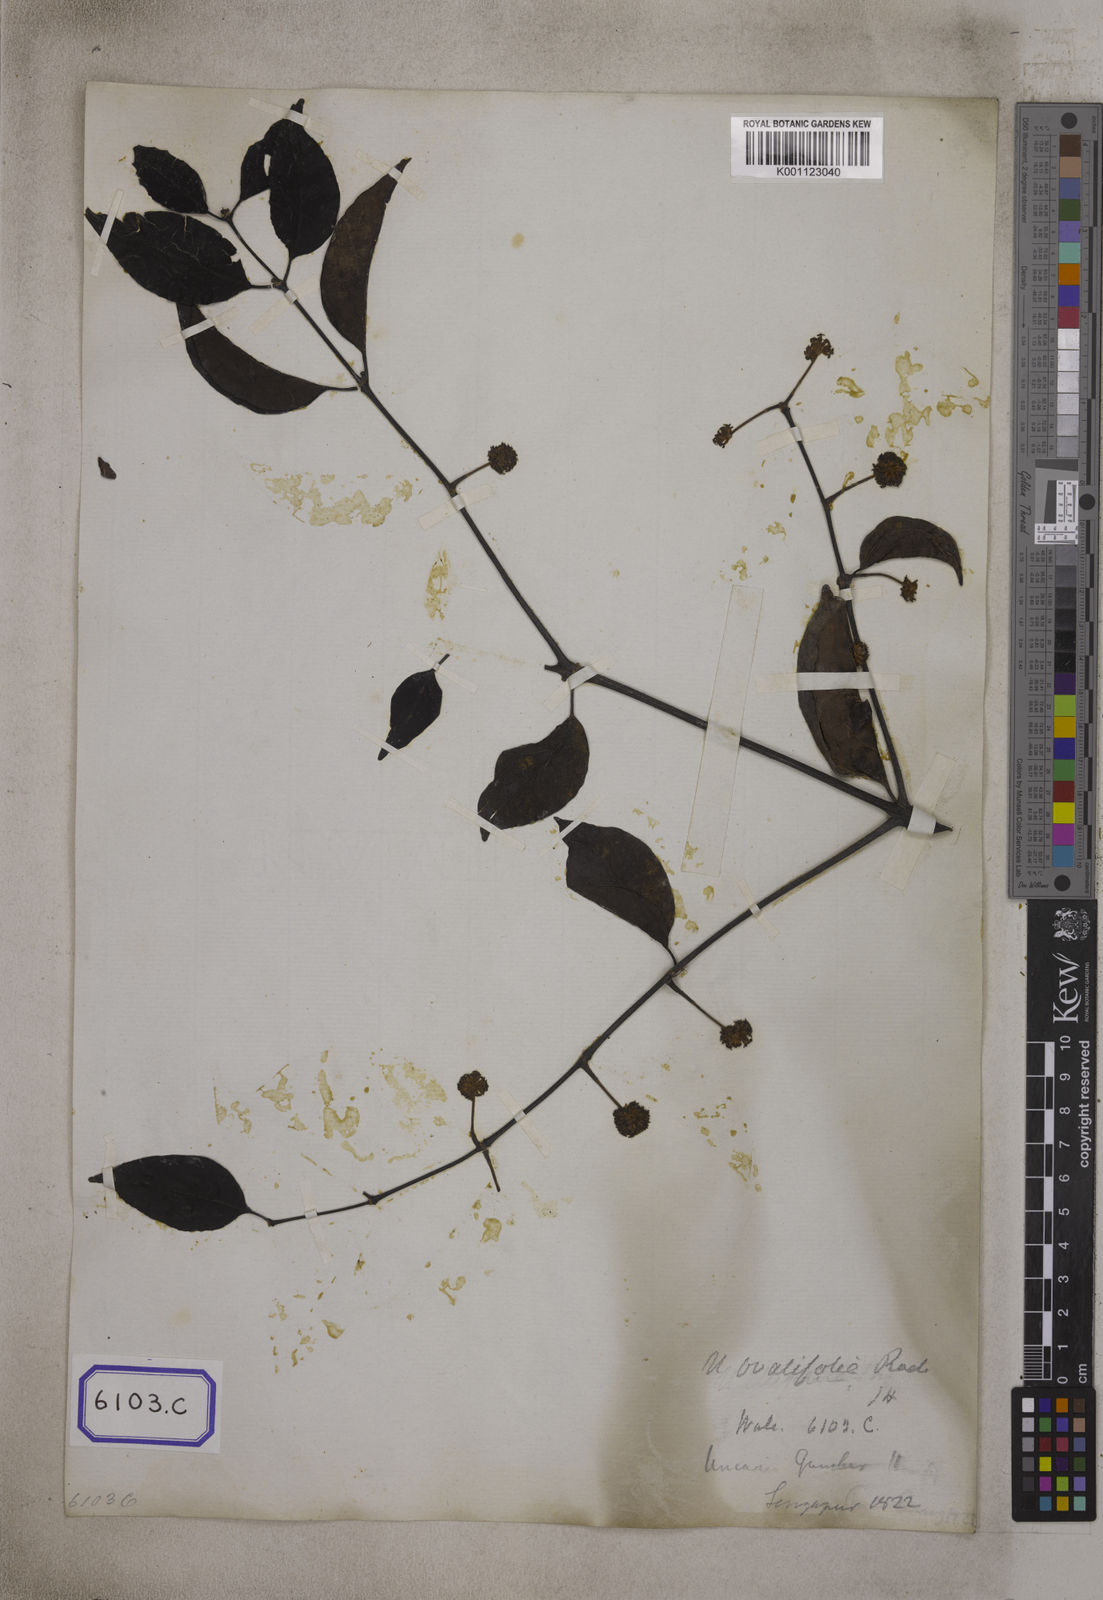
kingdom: Plantae
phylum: Tracheophyta
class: Magnoliopsida
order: Gentianales
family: Rubiaceae
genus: Uncaria
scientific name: Uncaria gambir
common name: Pale catechu
